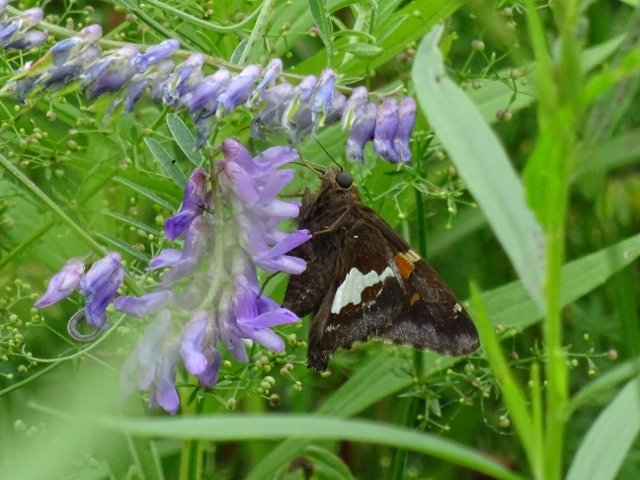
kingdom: Animalia
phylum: Arthropoda
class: Insecta
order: Lepidoptera
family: Hesperiidae
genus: Epargyreus
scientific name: Epargyreus clarus
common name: Silver-spotted Skipper
